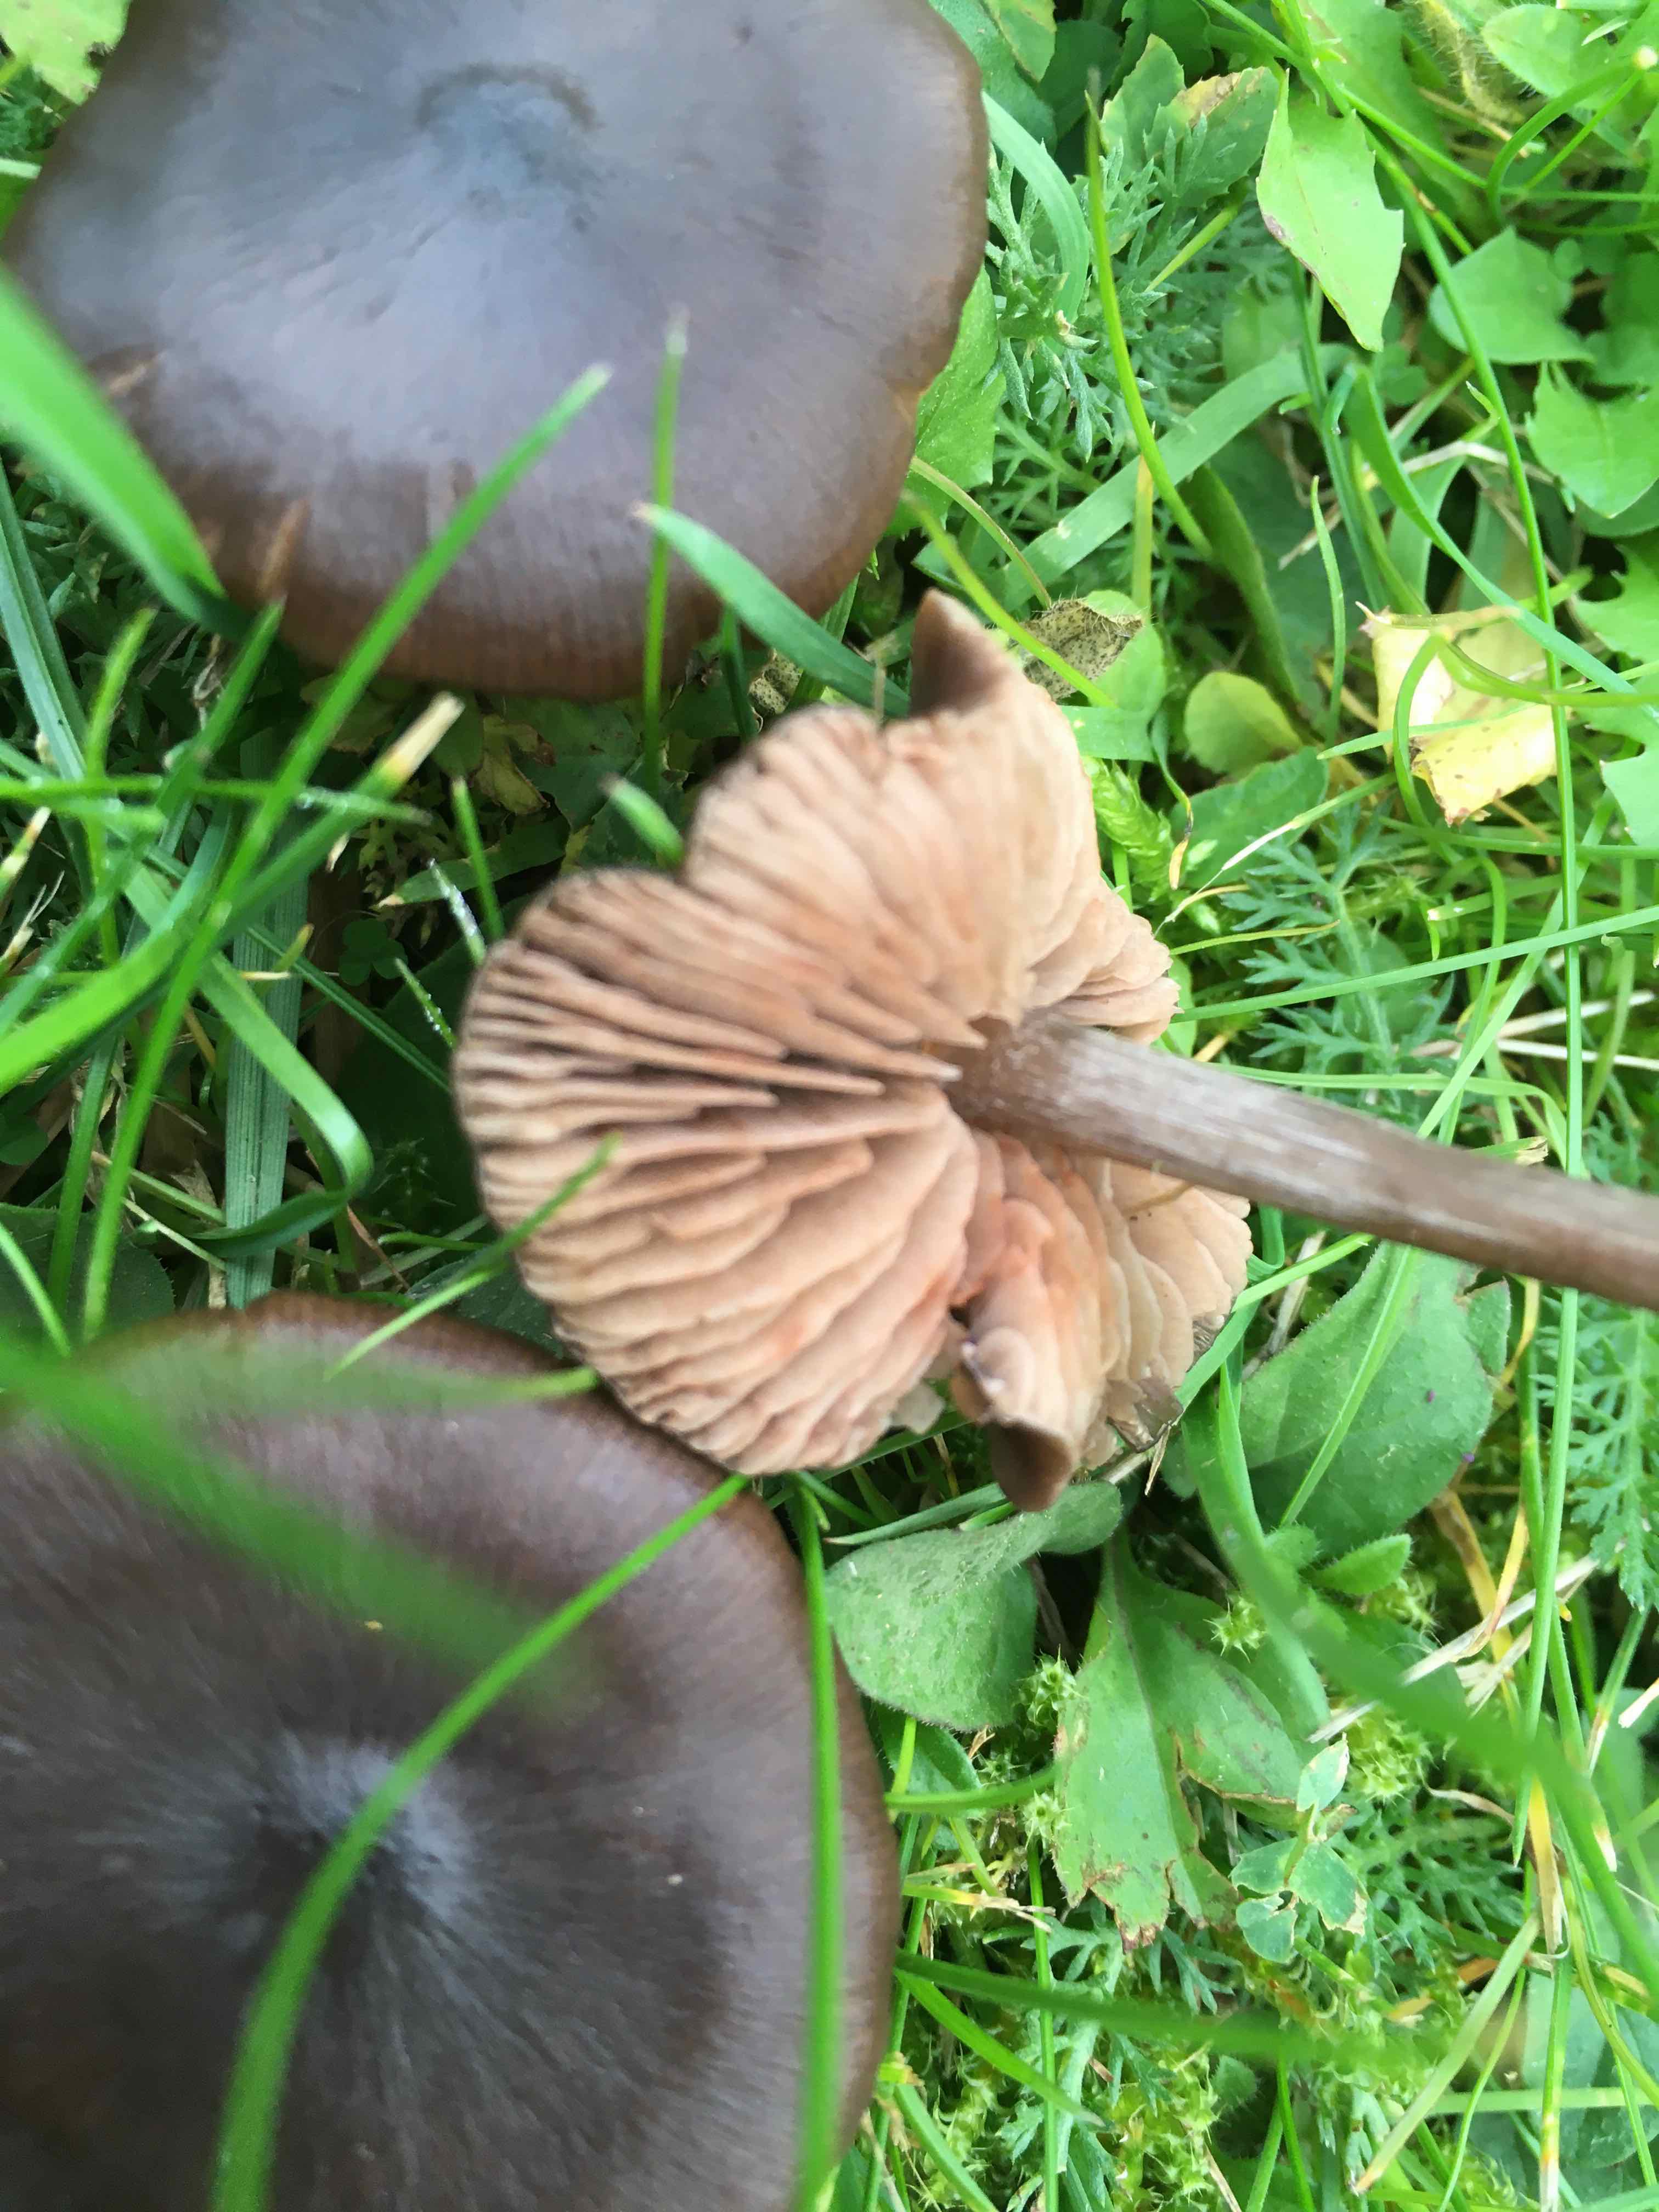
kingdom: Fungi
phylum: Basidiomycota
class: Agaricomycetes
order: Agaricales
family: Entolomataceae
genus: Entoloma
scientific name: Entoloma
